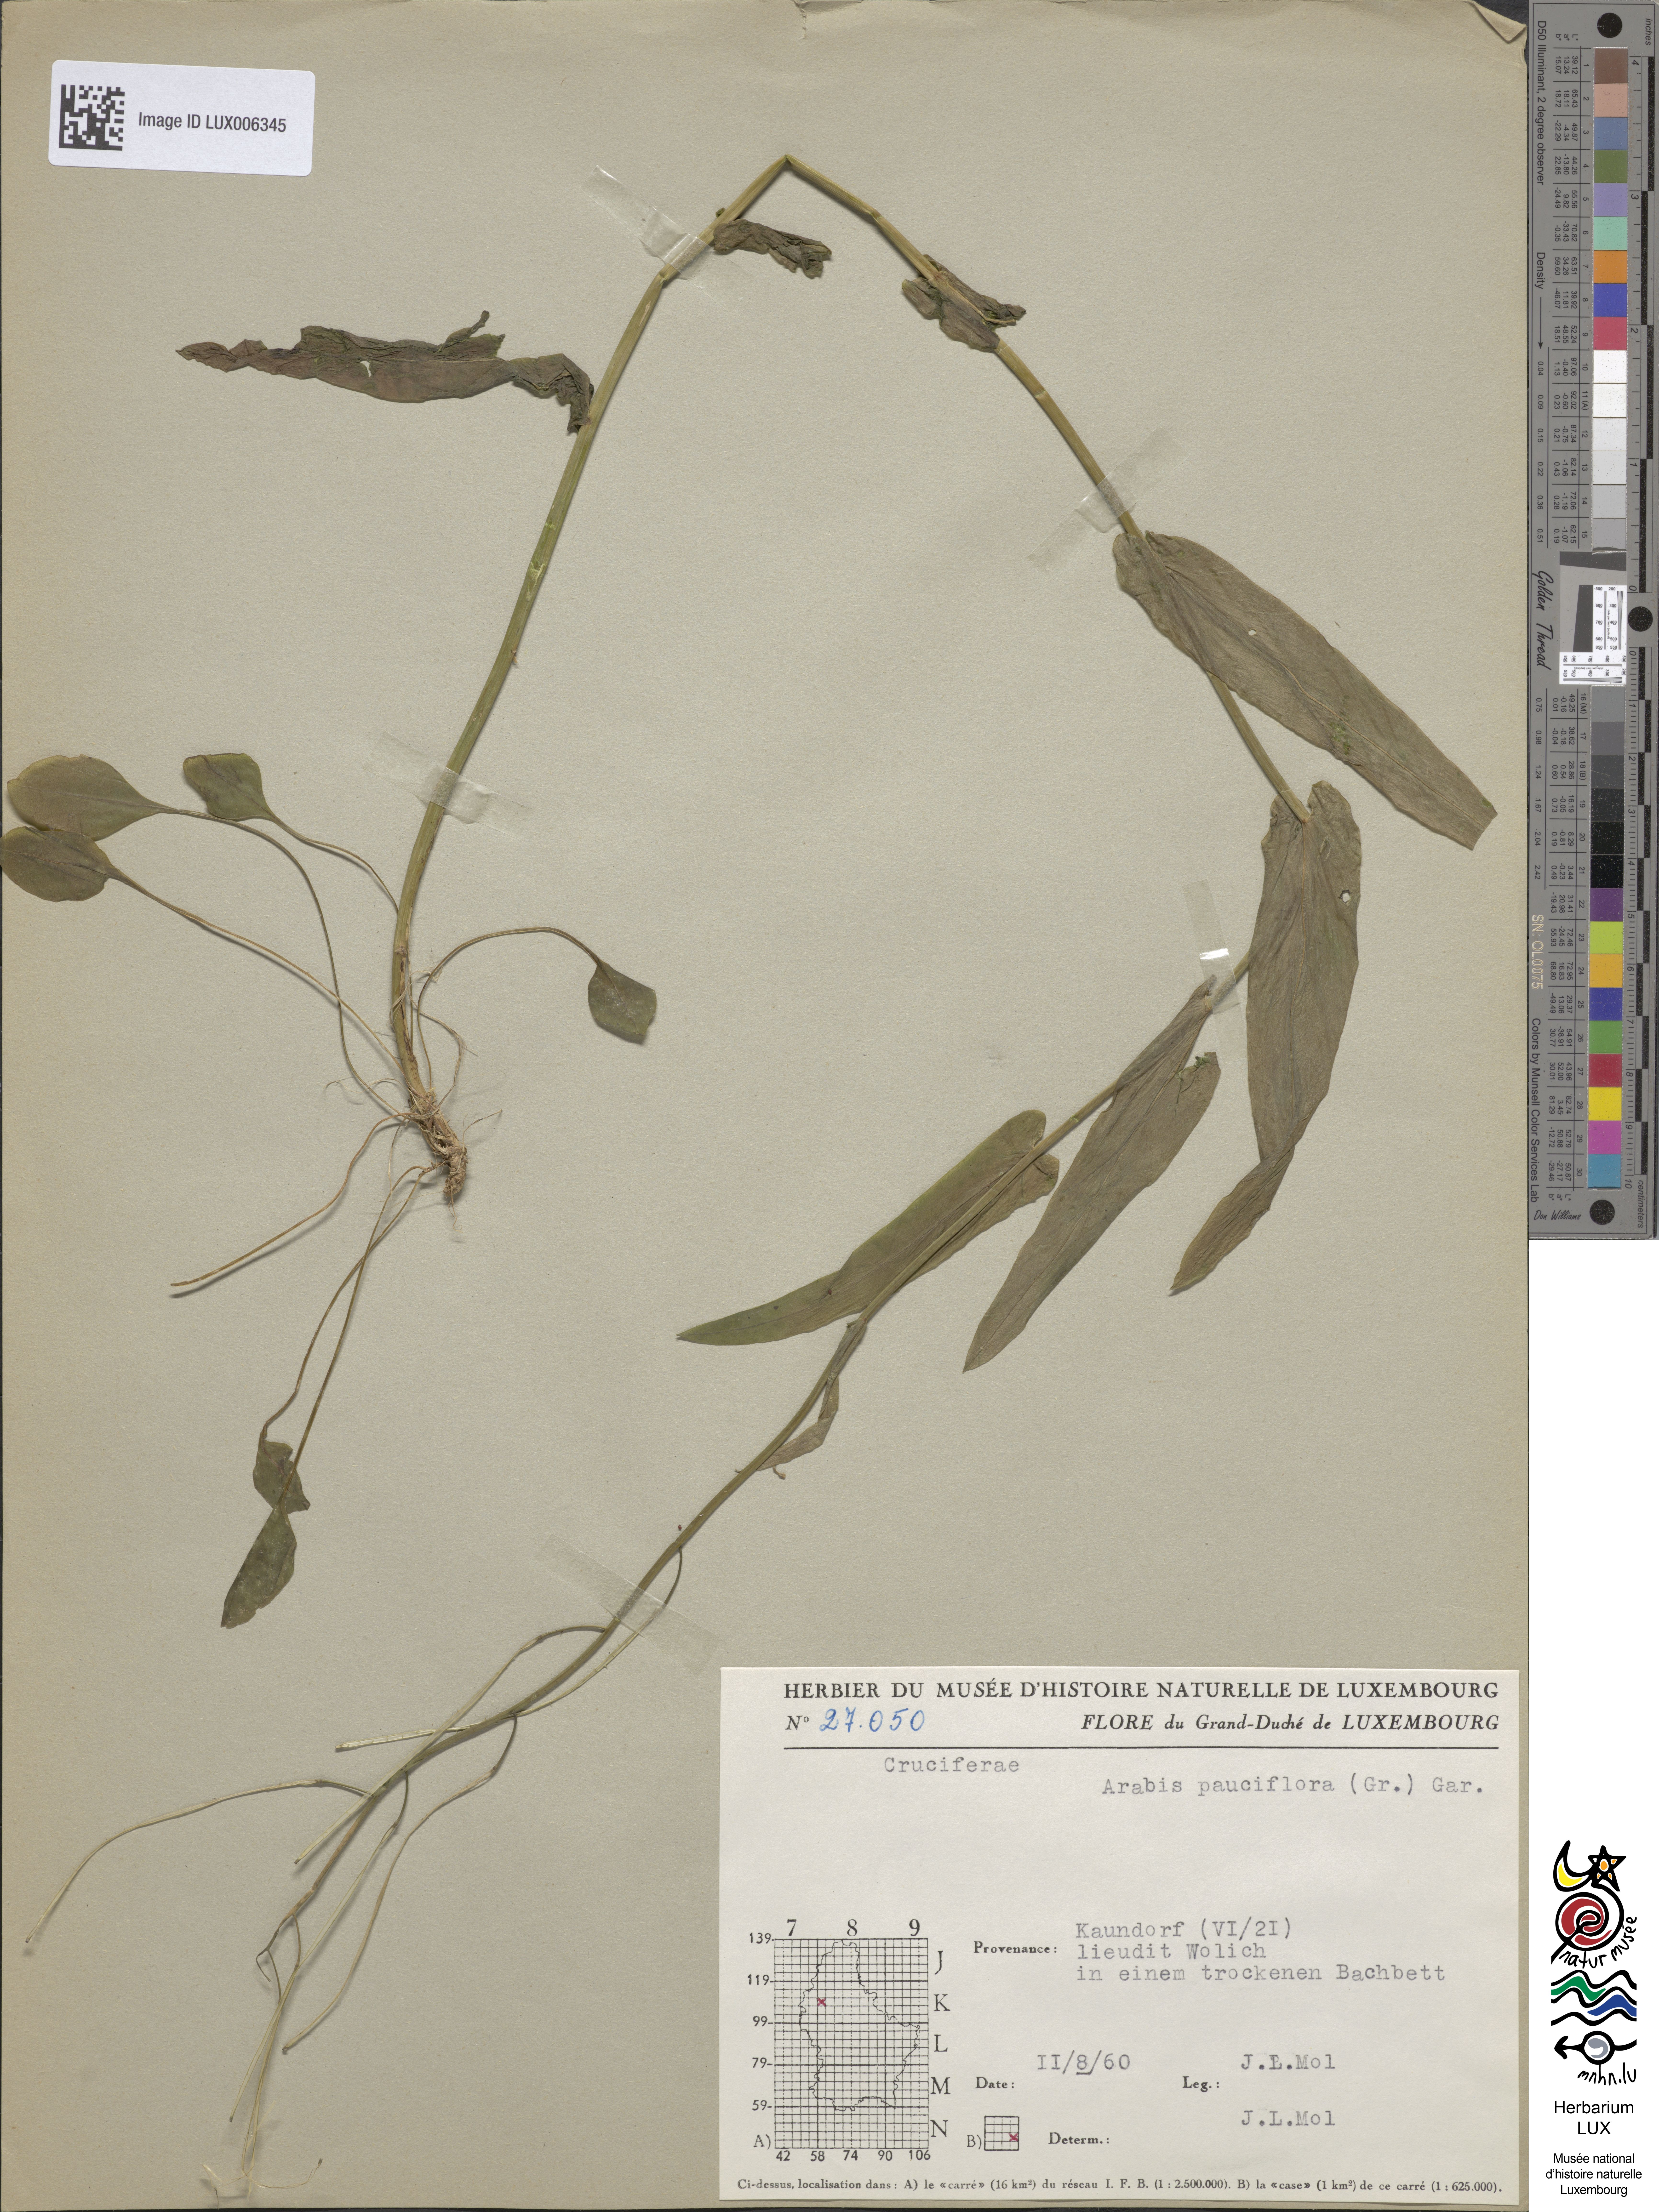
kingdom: Plantae
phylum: Tracheophyta
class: Magnoliopsida
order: Brassicales
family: Brassicaceae
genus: Fourraea
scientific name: Fourraea alpina
